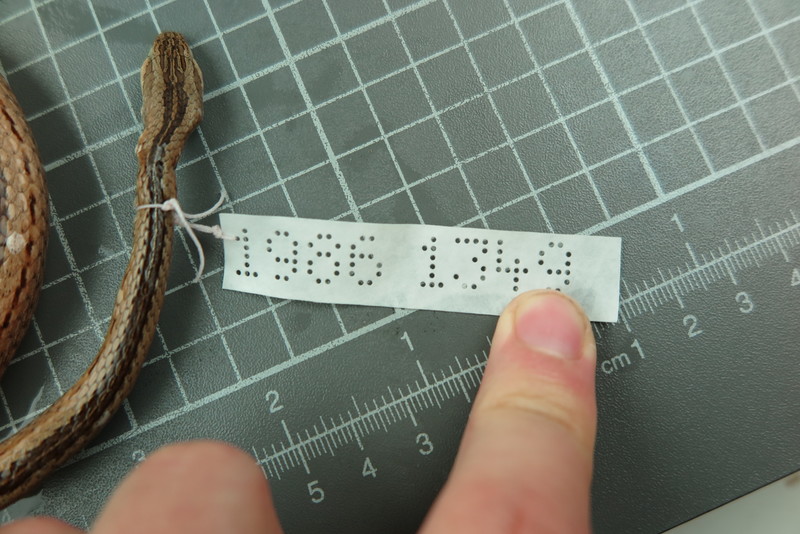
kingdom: Animalia
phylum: Chordata
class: Squamata
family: Psammophiidae
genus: Mimophis
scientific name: Mimophis
